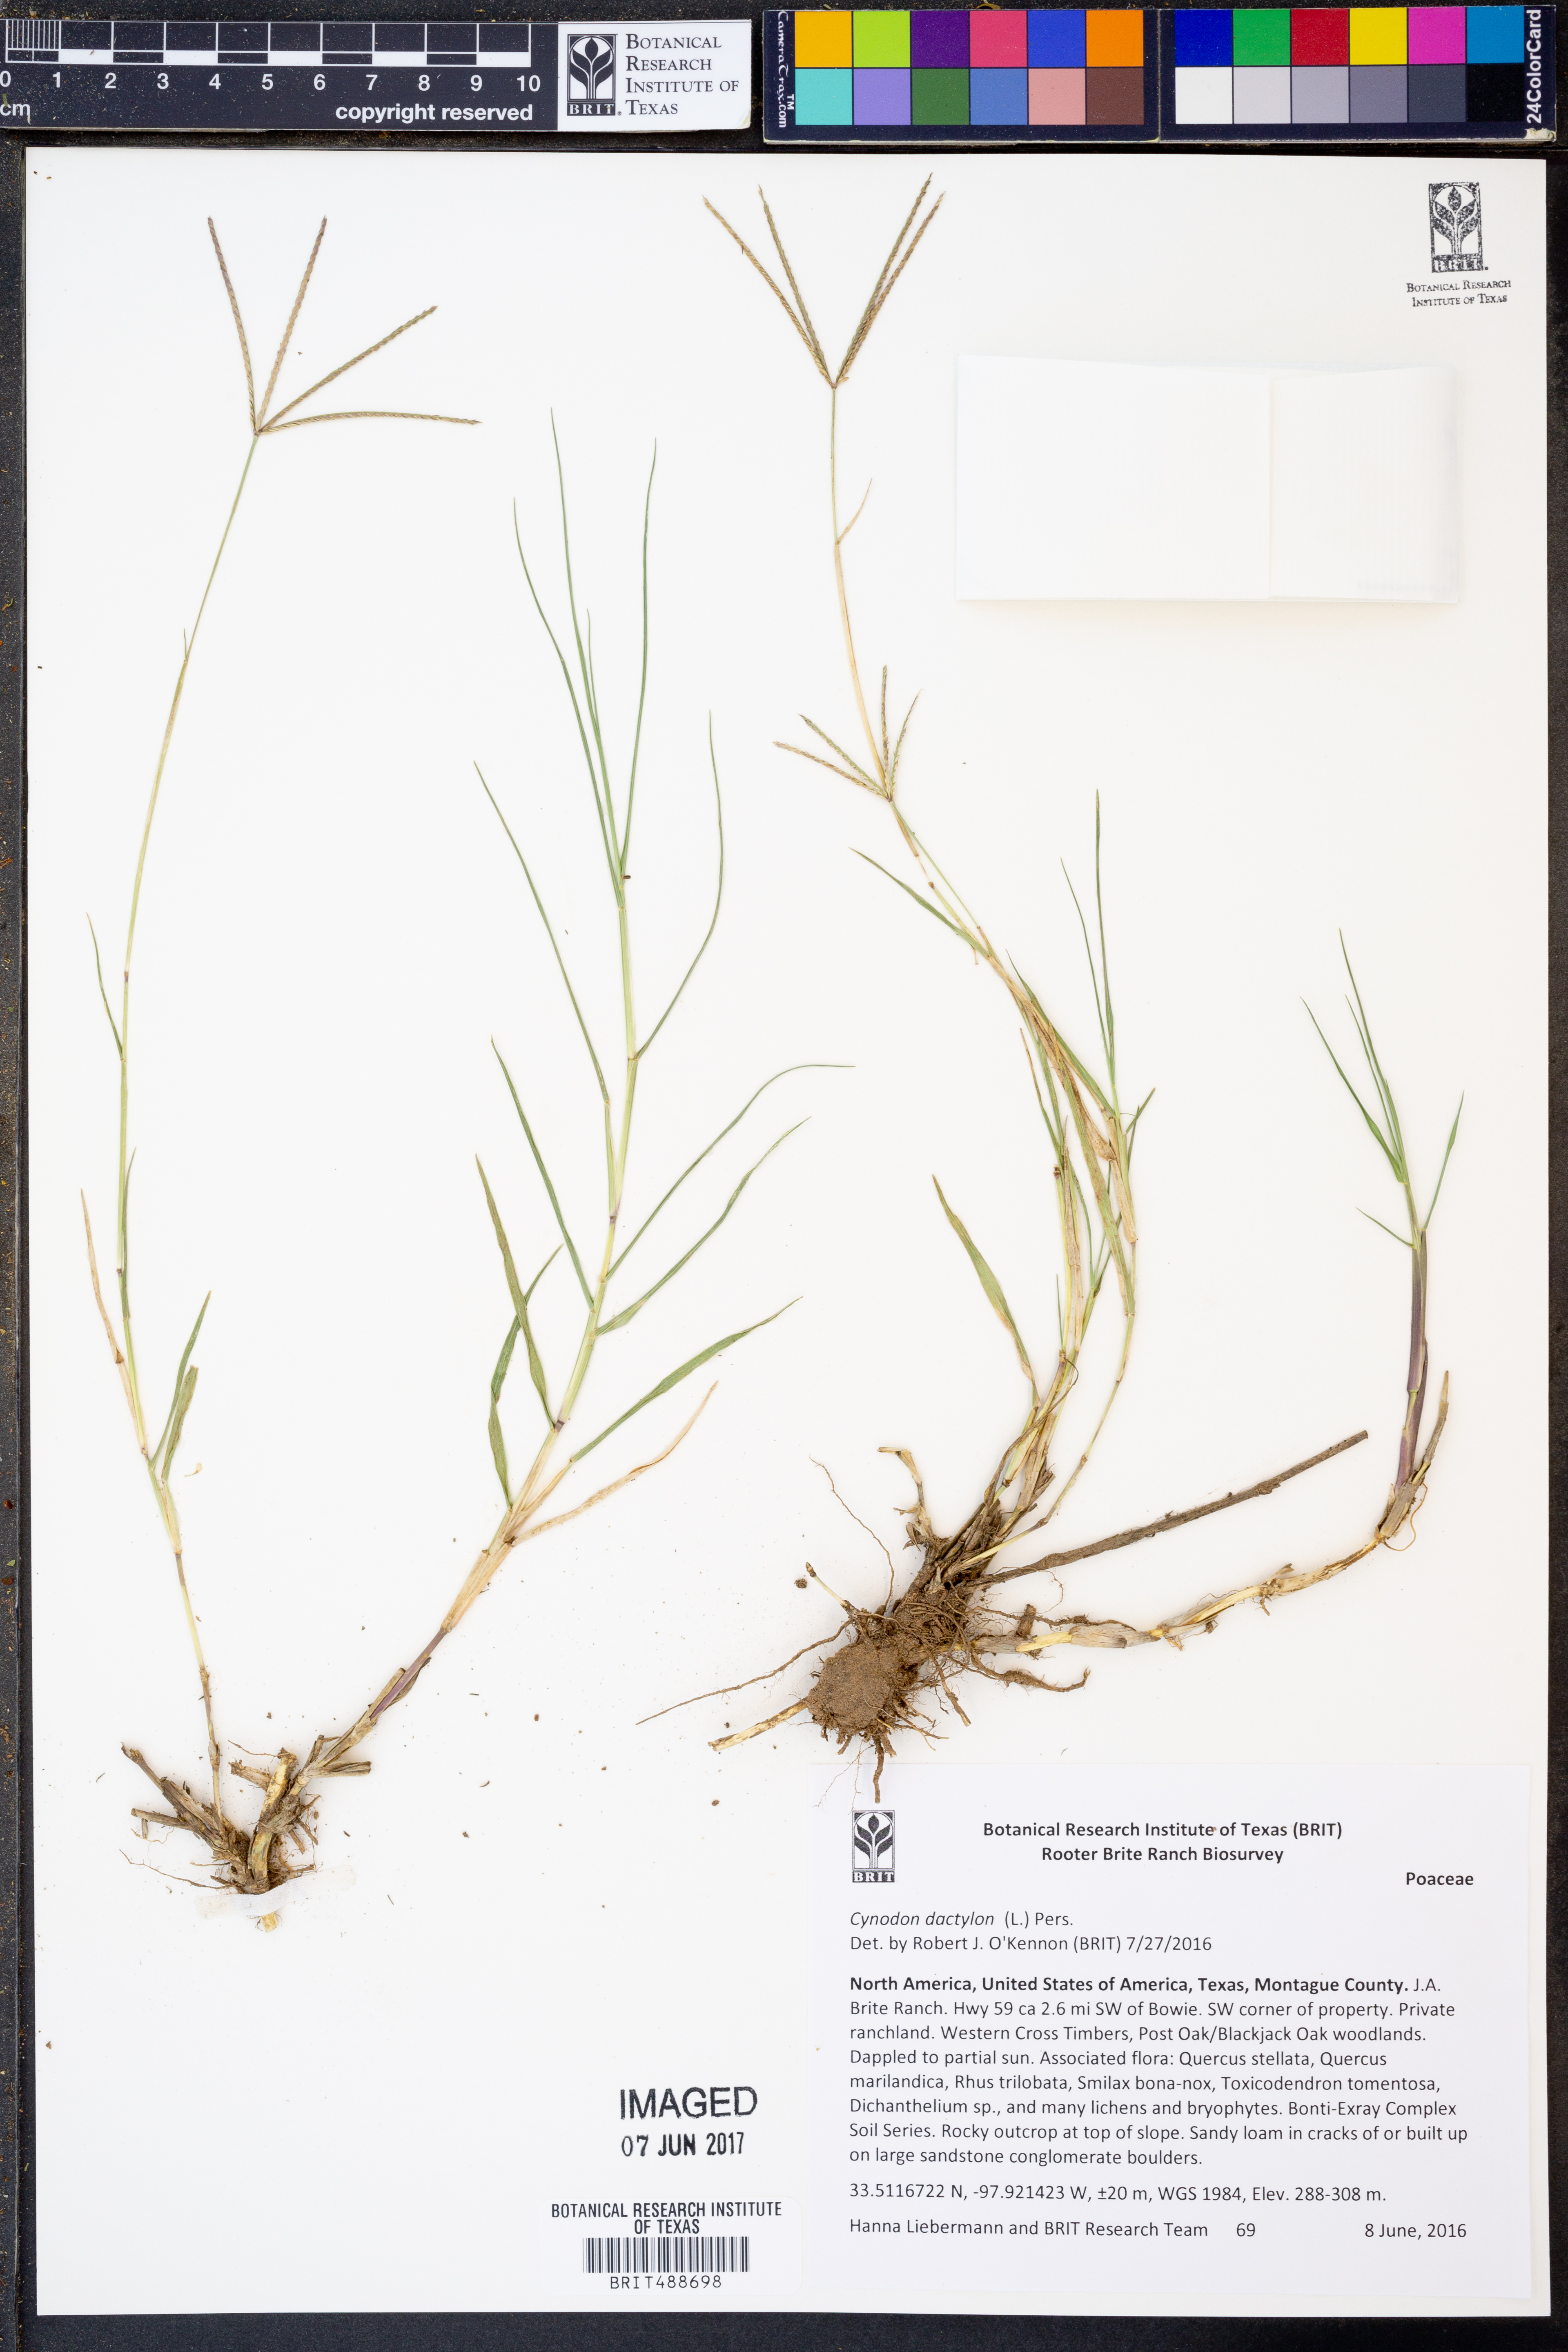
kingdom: Plantae
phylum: Tracheophyta
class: Liliopsida
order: Poales
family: Poaceae
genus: Cynodon
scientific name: Cynodon dactylon
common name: Bermuda grass
